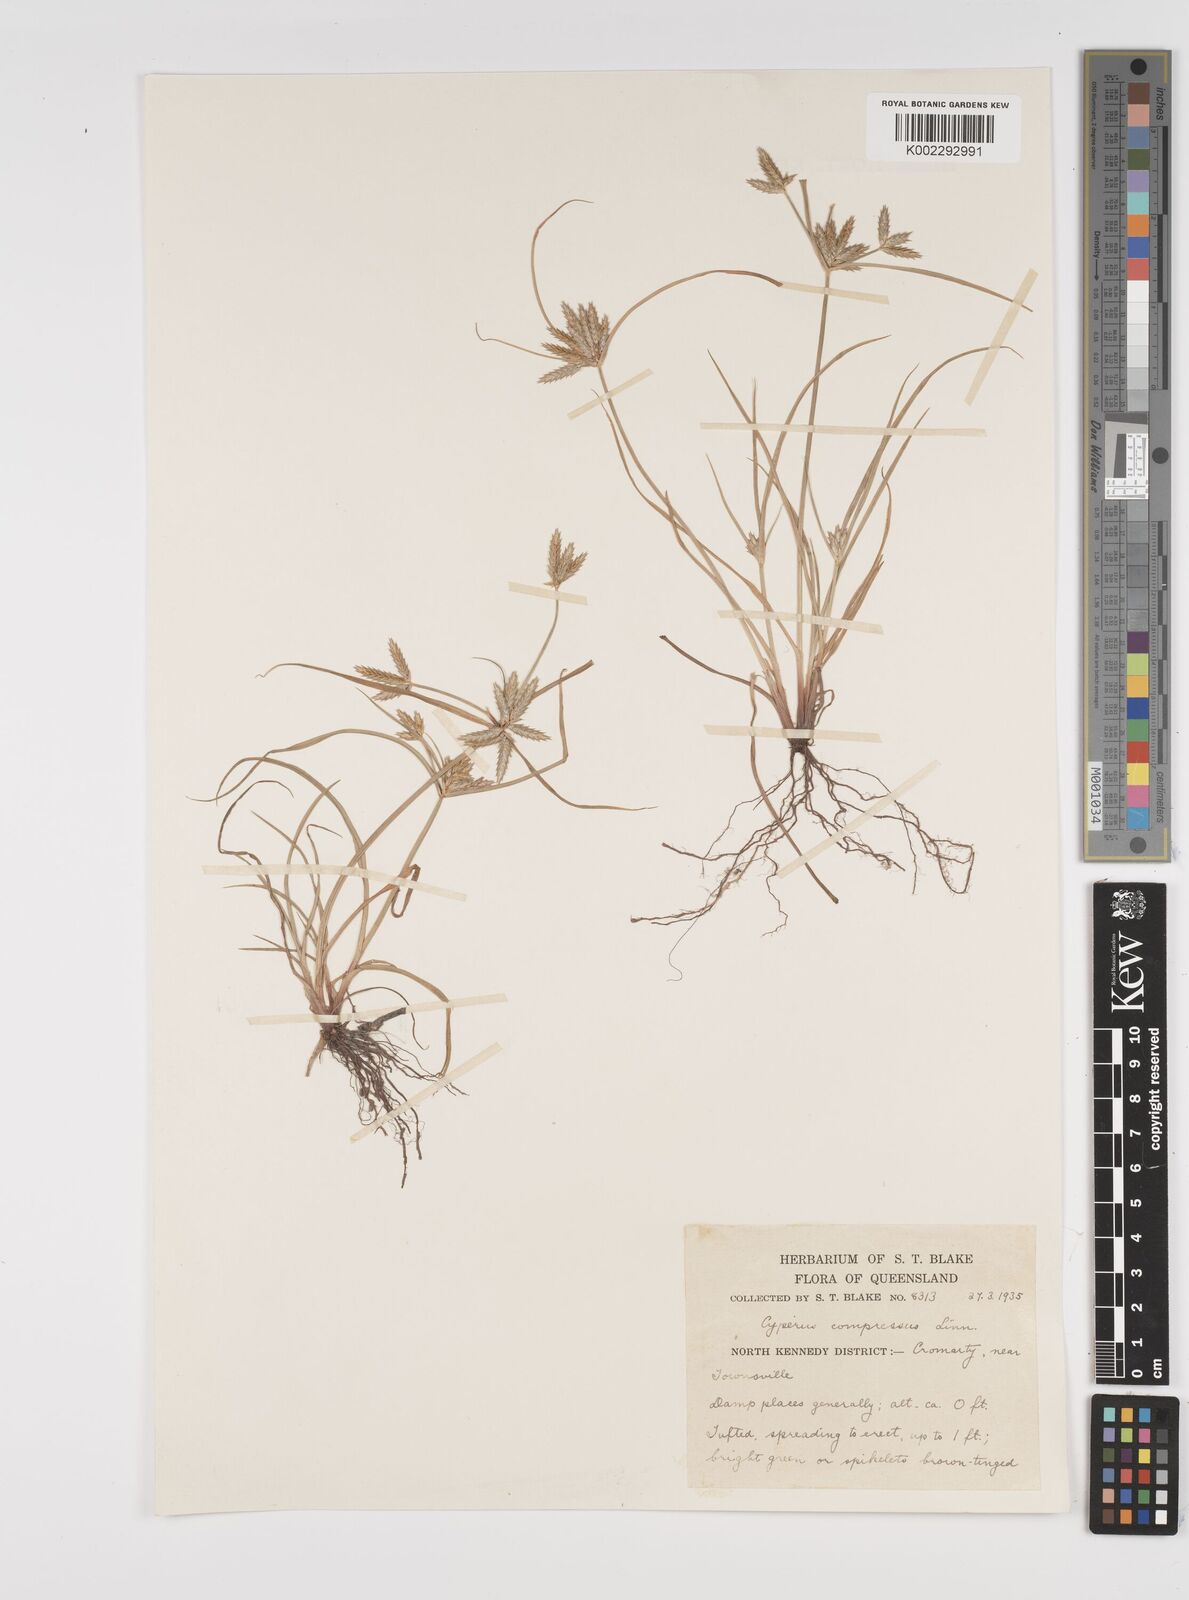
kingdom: Plantae
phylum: Tracheophyta
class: Liliopsida
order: Poales
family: Cyperaceae
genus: Cyperus
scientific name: Cyperus compressus
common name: Poorland flatsedge
